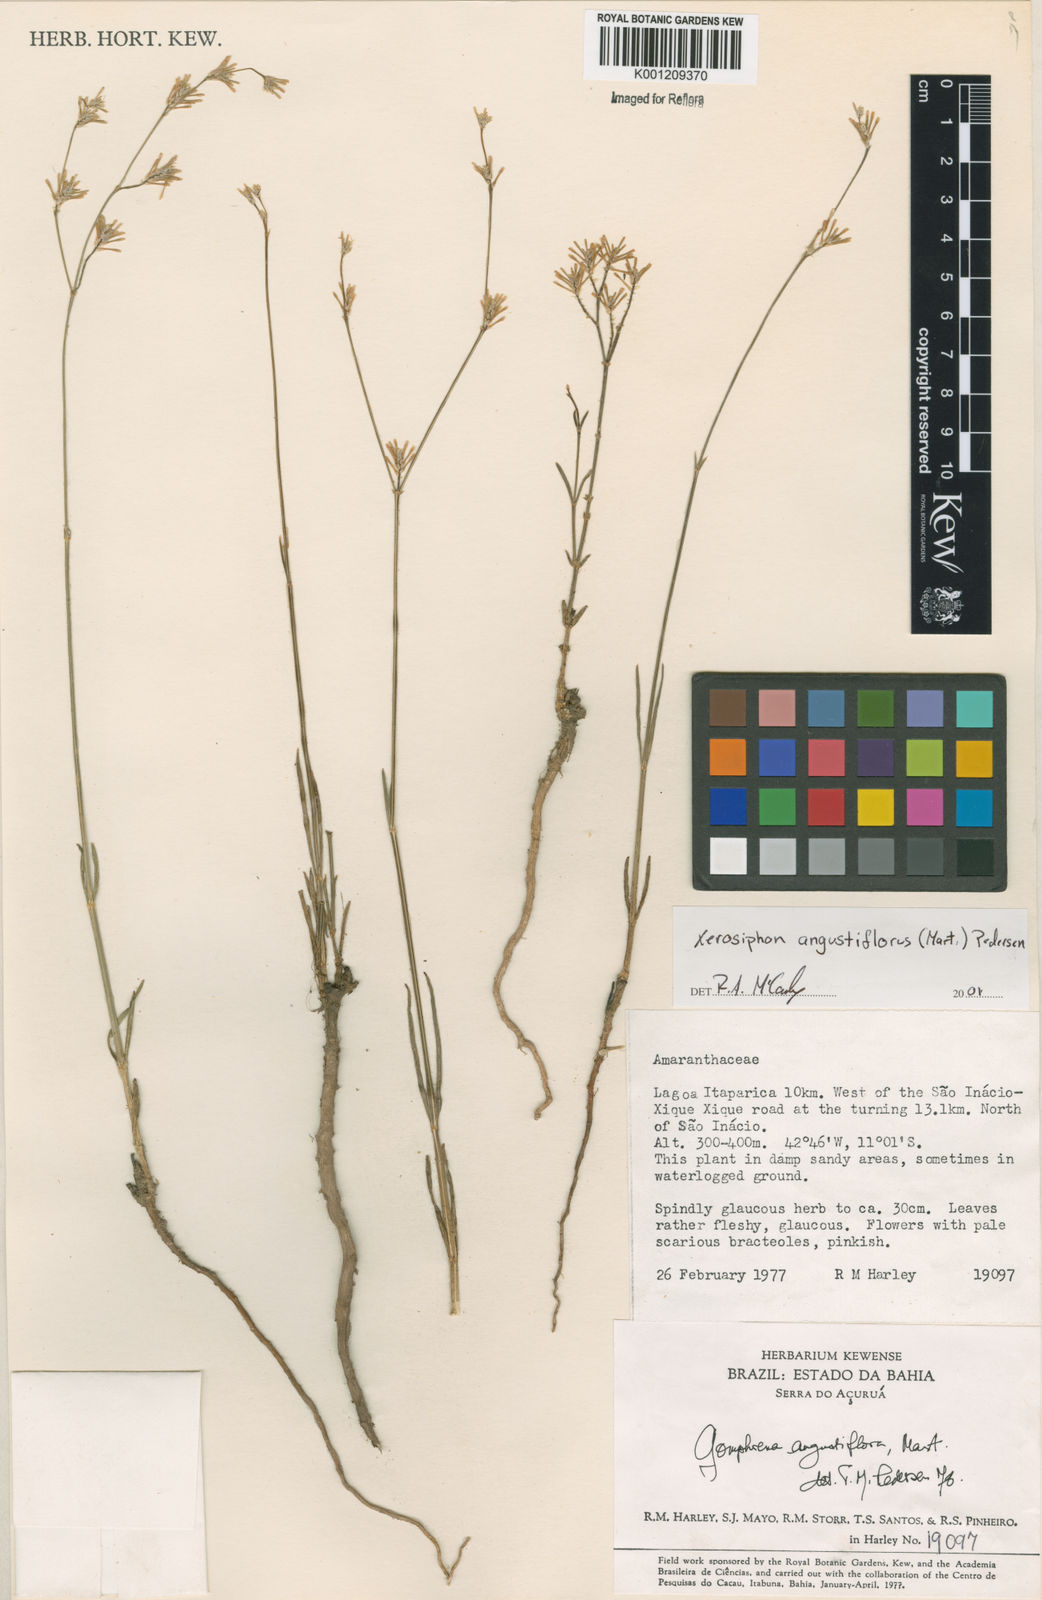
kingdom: Plantae
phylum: Tracheophyta
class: Magnoliopsida
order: Caryophyllales
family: Amaranthaceae
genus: Gomphrena
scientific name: Gomphrena angustiflora
